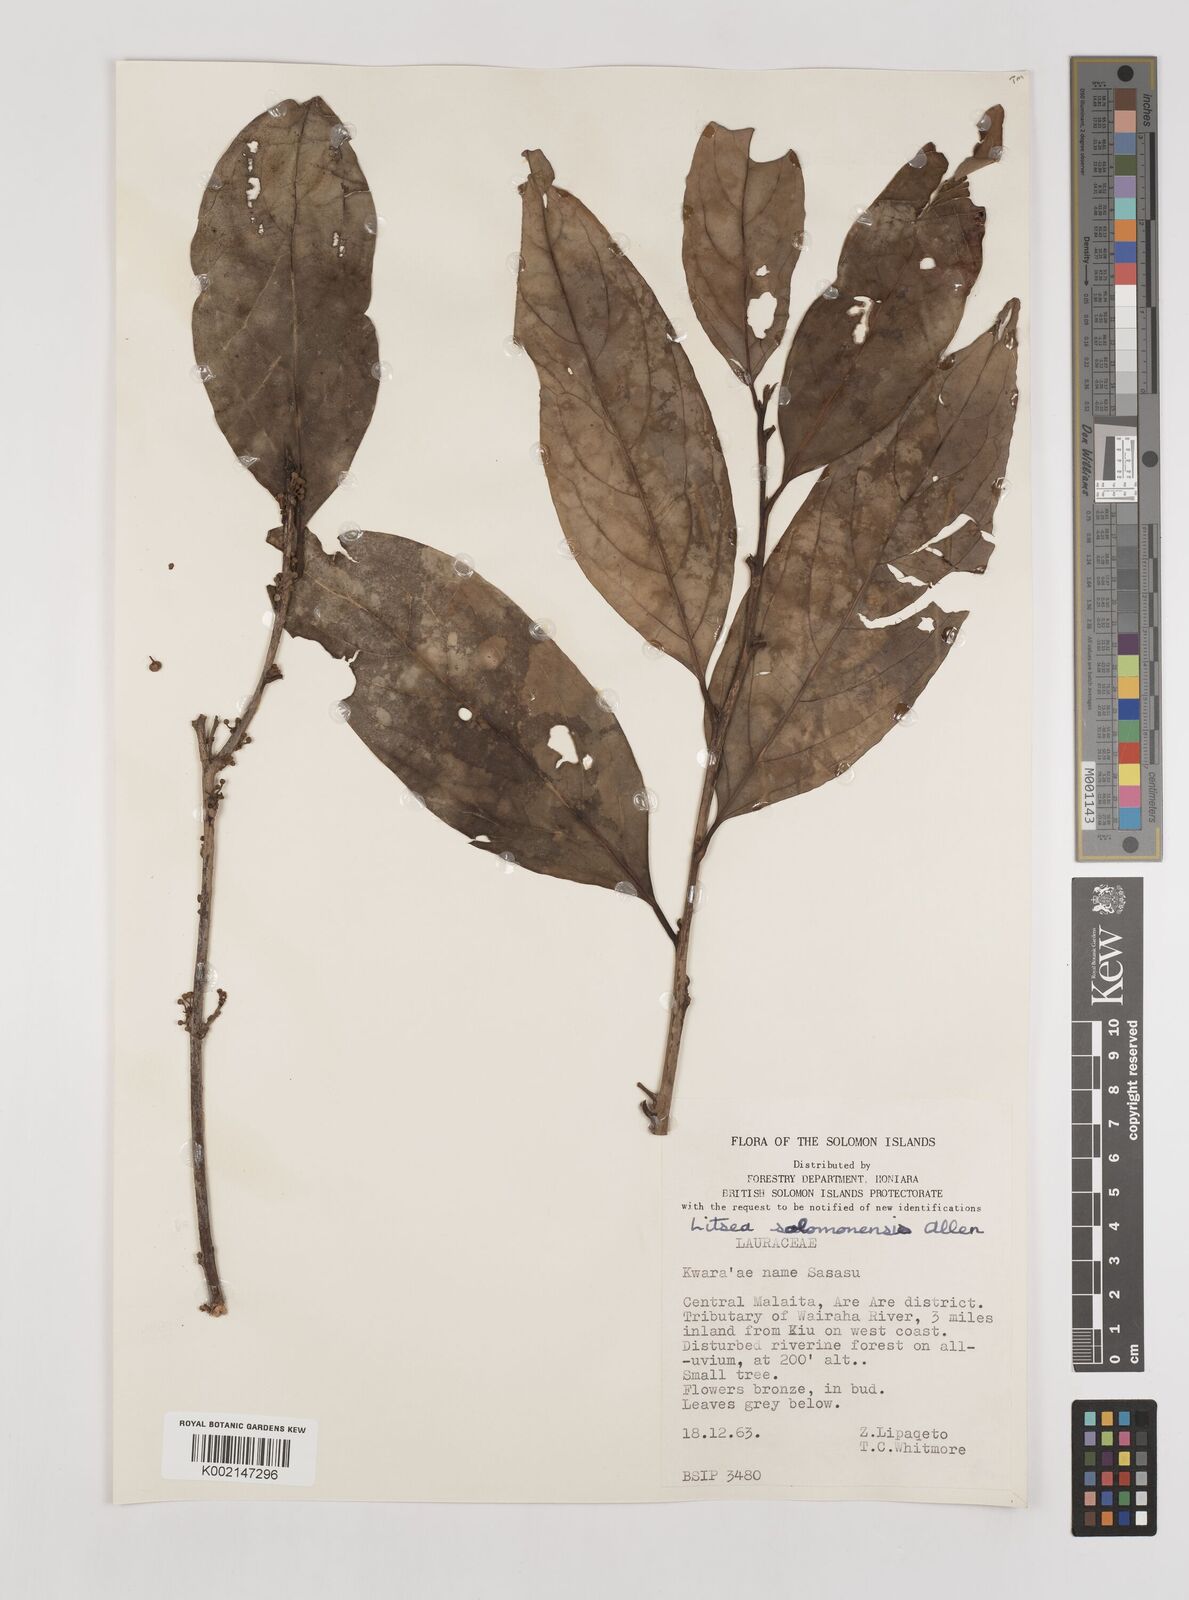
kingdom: Plantae
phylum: Tracheophyta
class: Magnoliopsida
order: Laurales
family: Lauraceae
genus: Litsea
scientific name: Litsea timoriana
